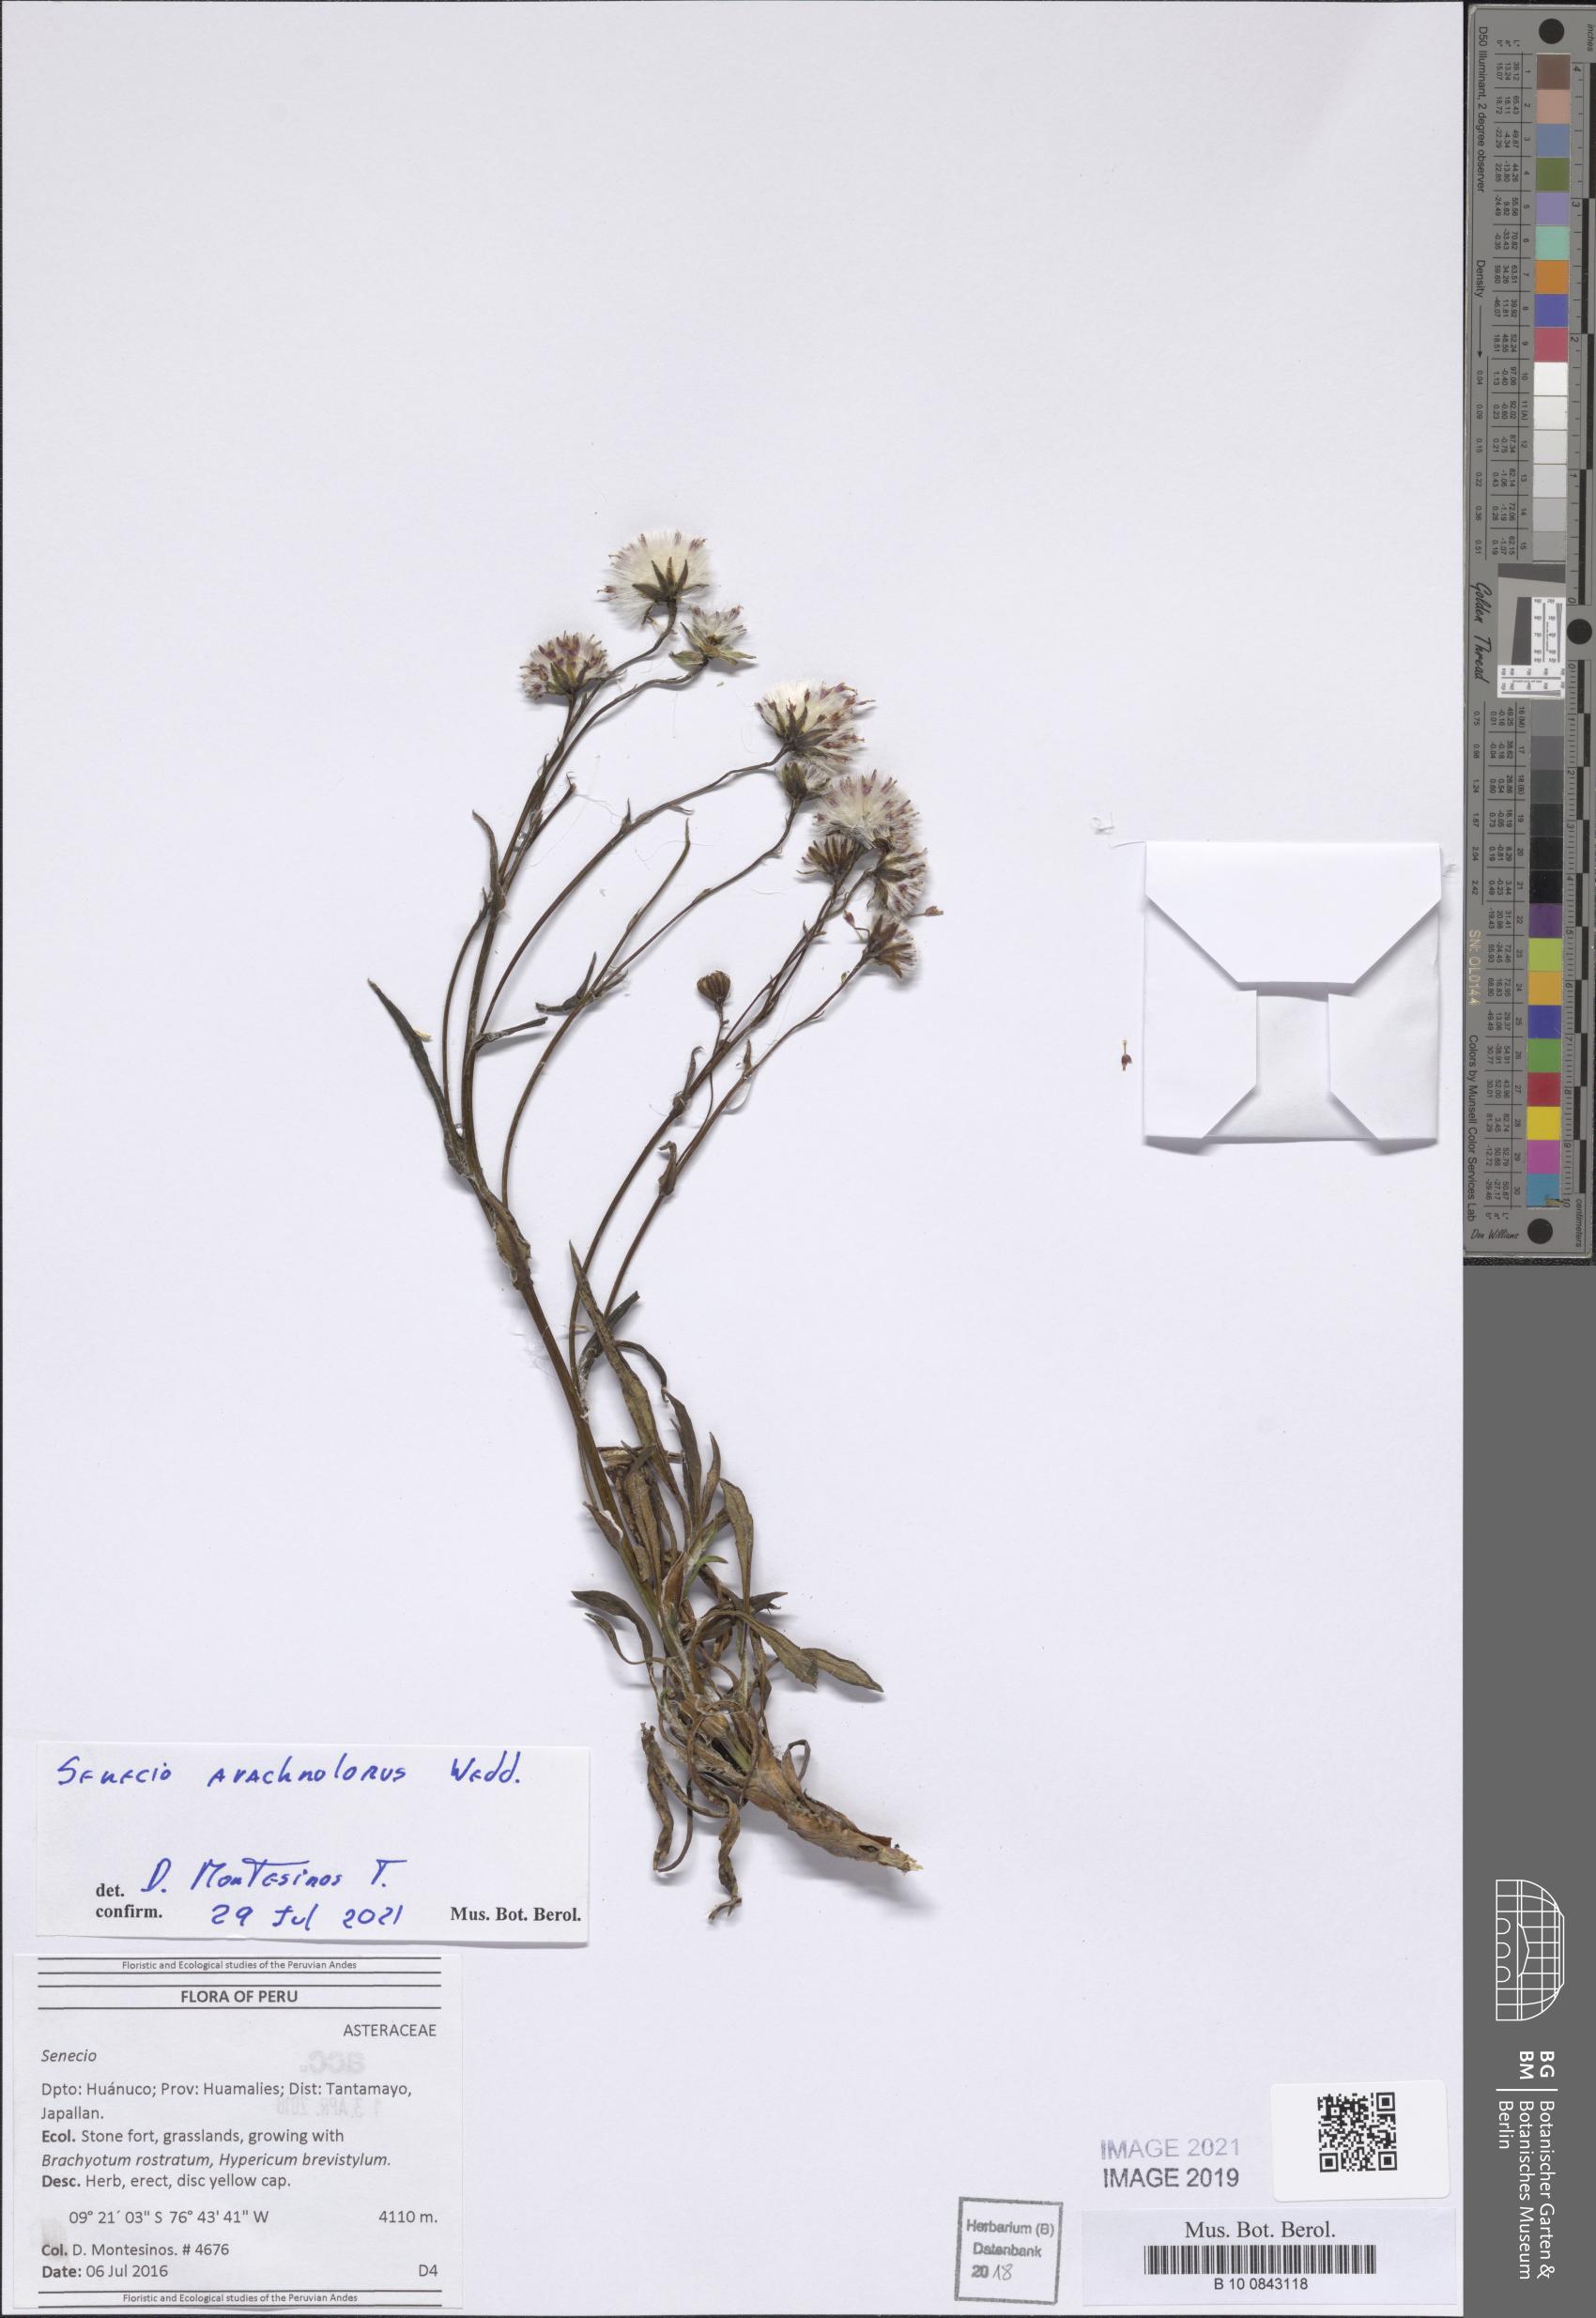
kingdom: Plantae
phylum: Tracheophyta
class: Magnoliopsida
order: Asterales
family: Asteraceae
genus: Senecio
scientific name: Senecio arachnolomus
